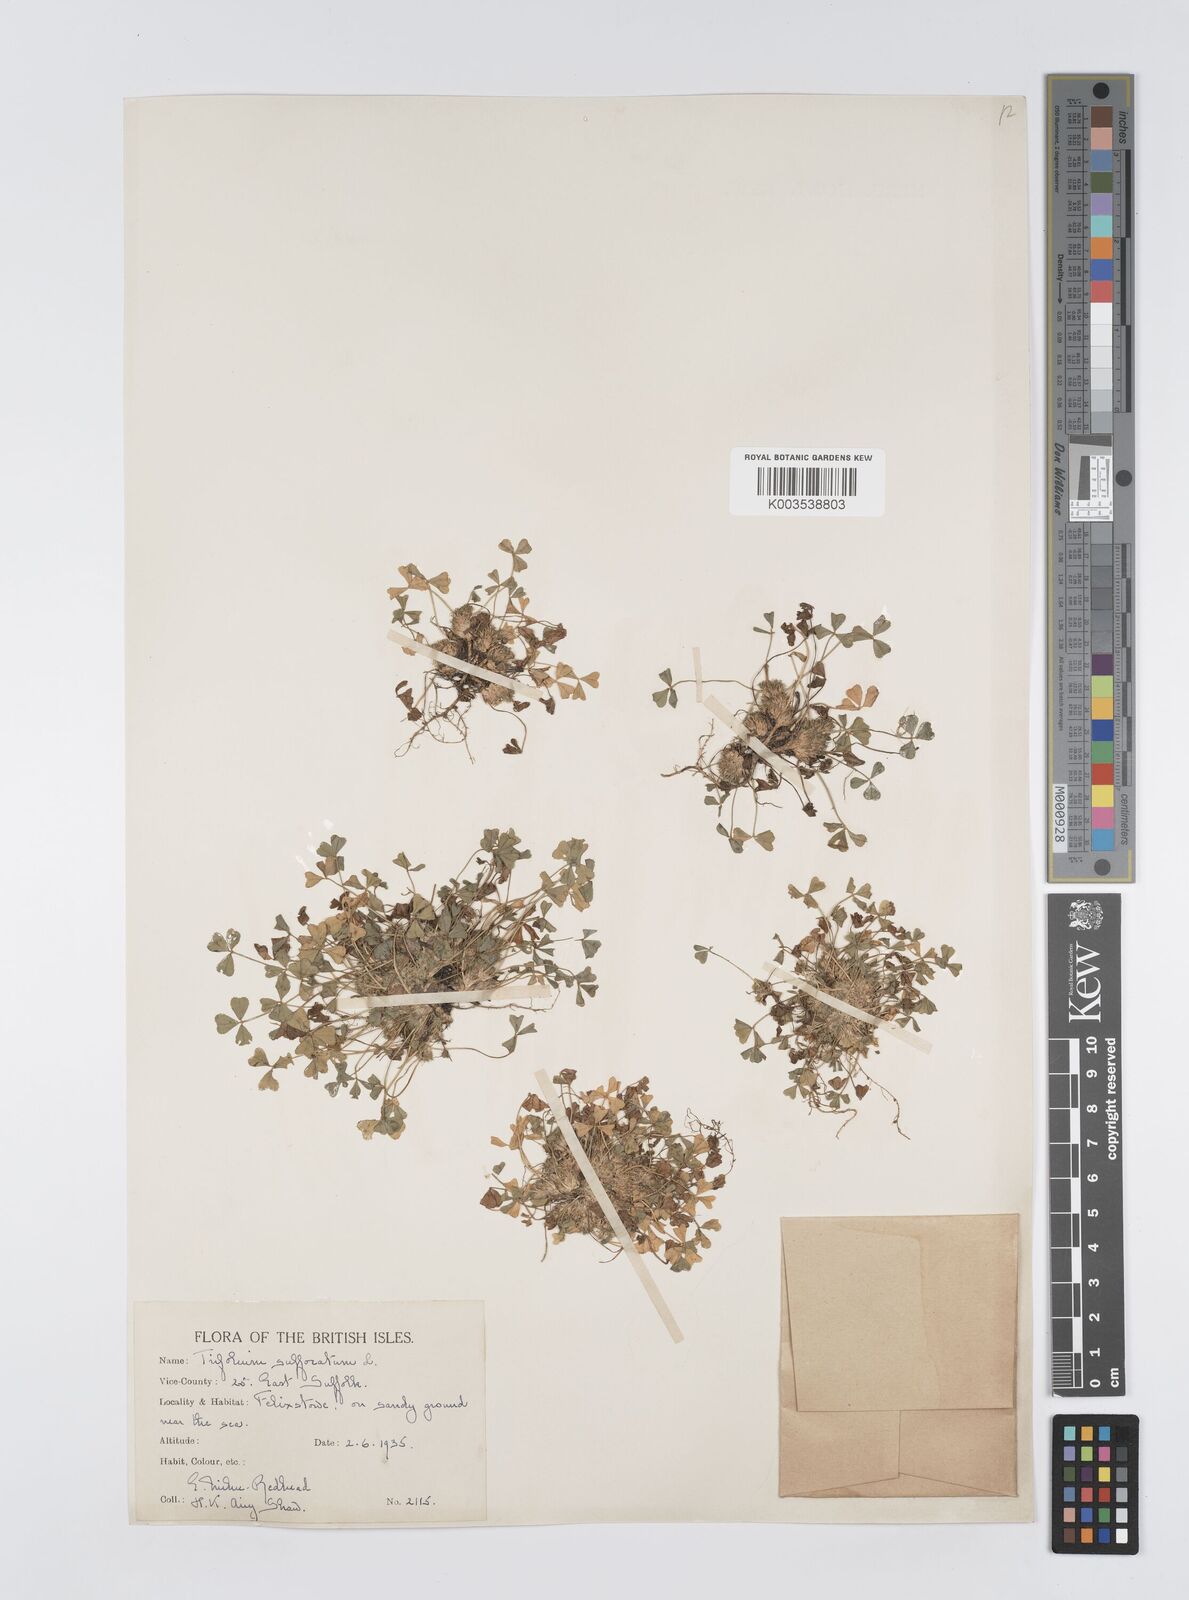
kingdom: Plantae
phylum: Tracheophyta
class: Magnoliopsida
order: Fabales
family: Fabaceae
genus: Trifolium
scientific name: Trifolium suffocatum
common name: Suffocated clover
